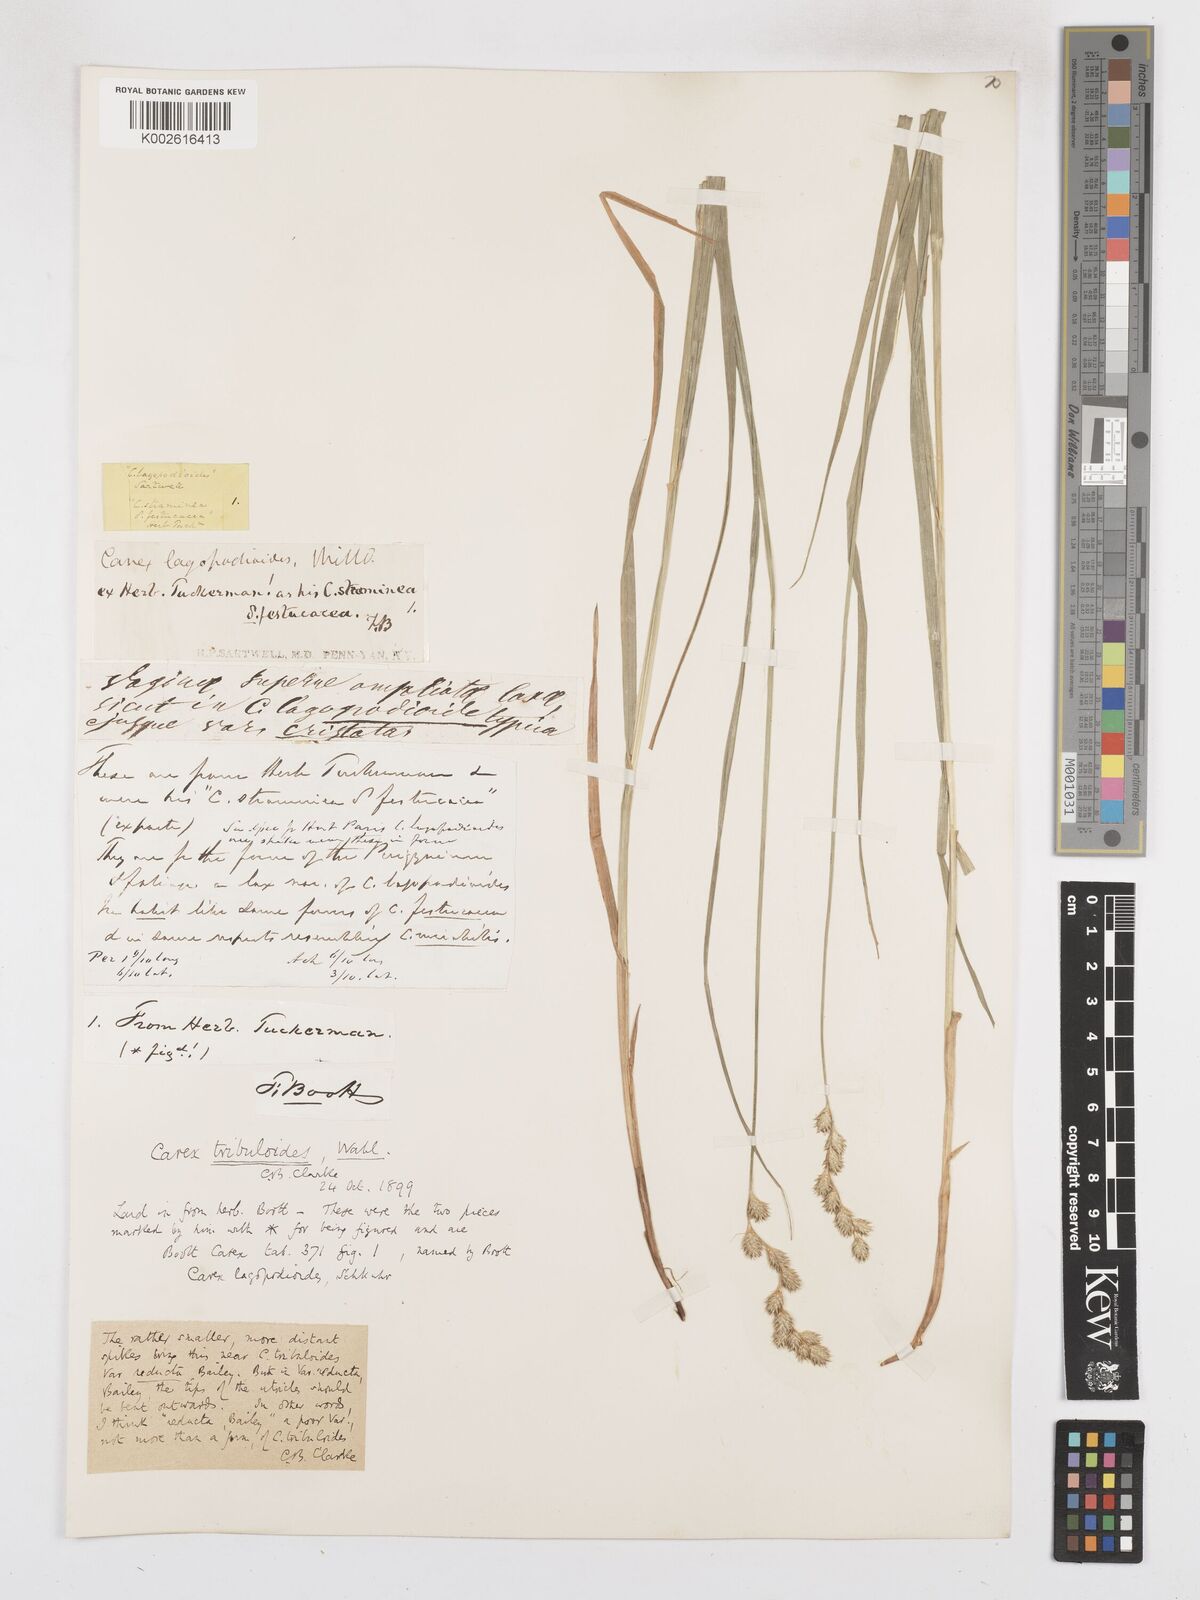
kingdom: Plantae
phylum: Tracheophyta
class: Liliopsida
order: Poales
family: Cyperaceae
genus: Carex
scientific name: Carex tribuloides
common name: Blunt broom sedge
